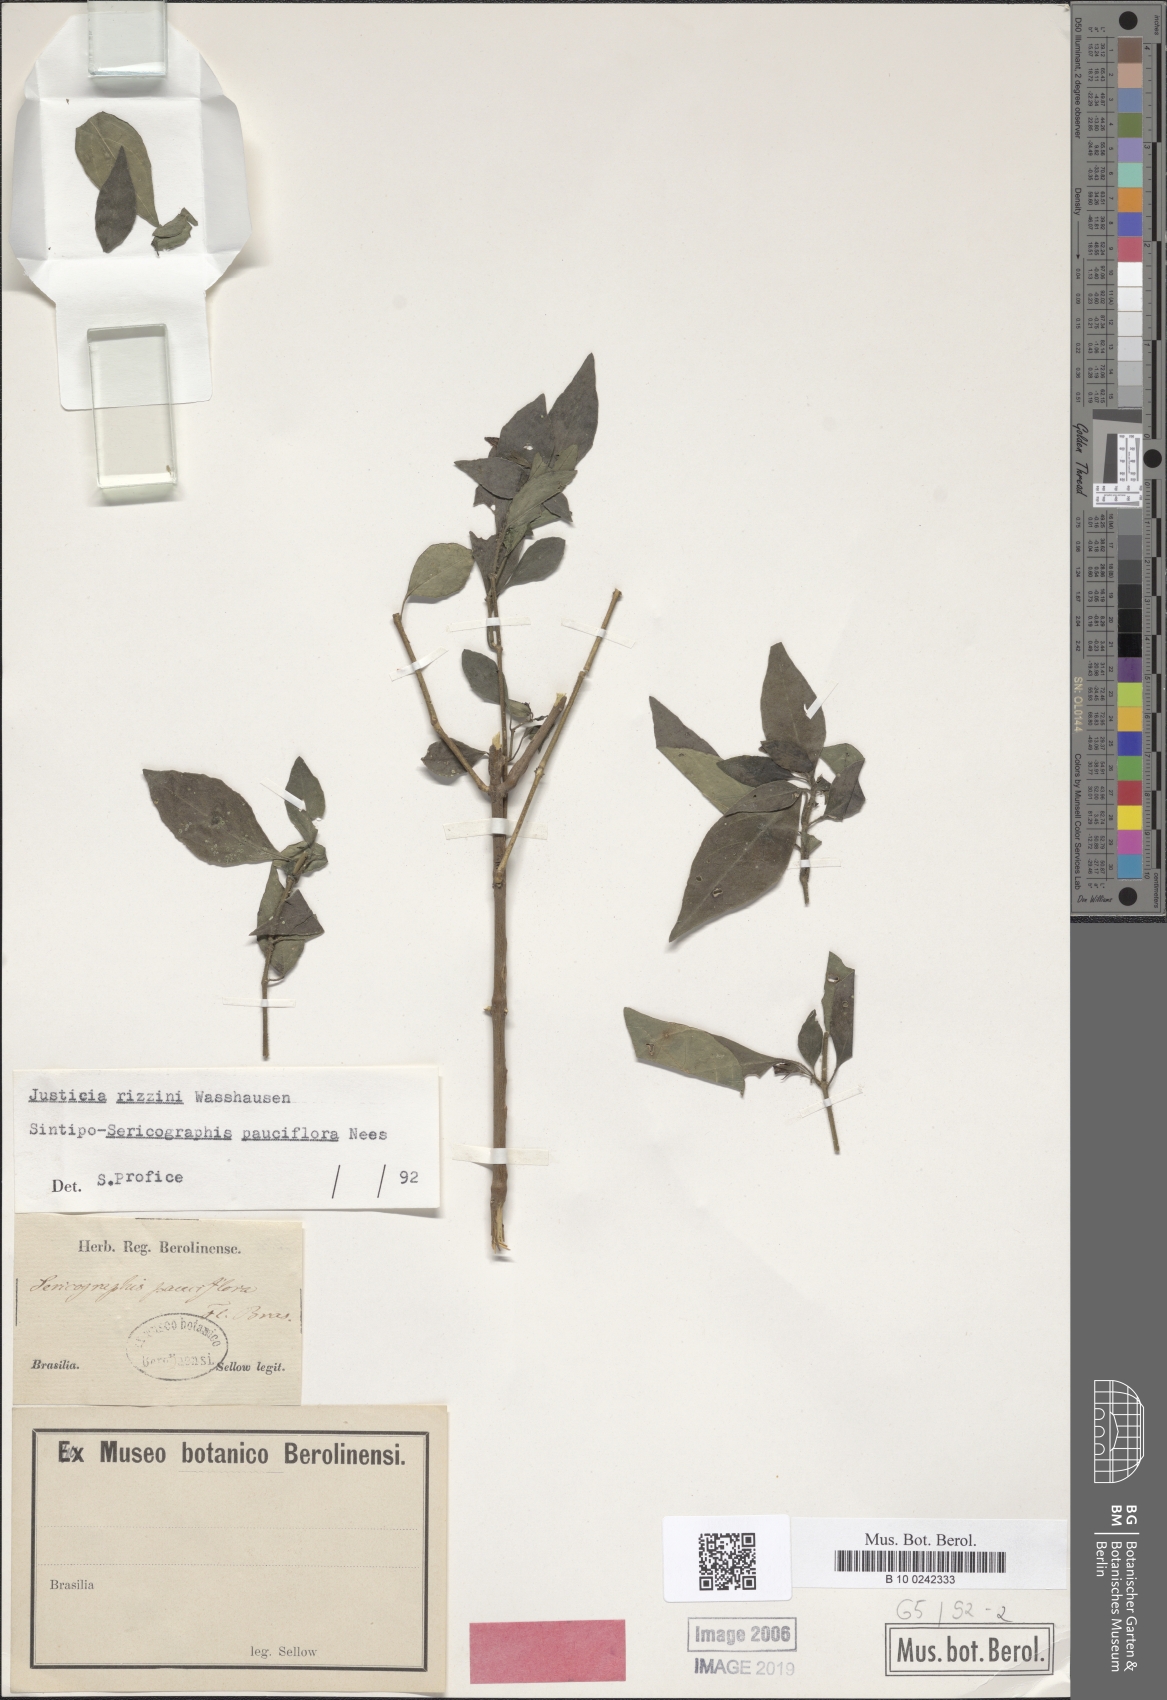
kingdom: Plantae
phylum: Tracheophyta
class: Magnoliopsida
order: Lamiales
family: Acanthaceae
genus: Justicia
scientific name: Justicia floribunda
